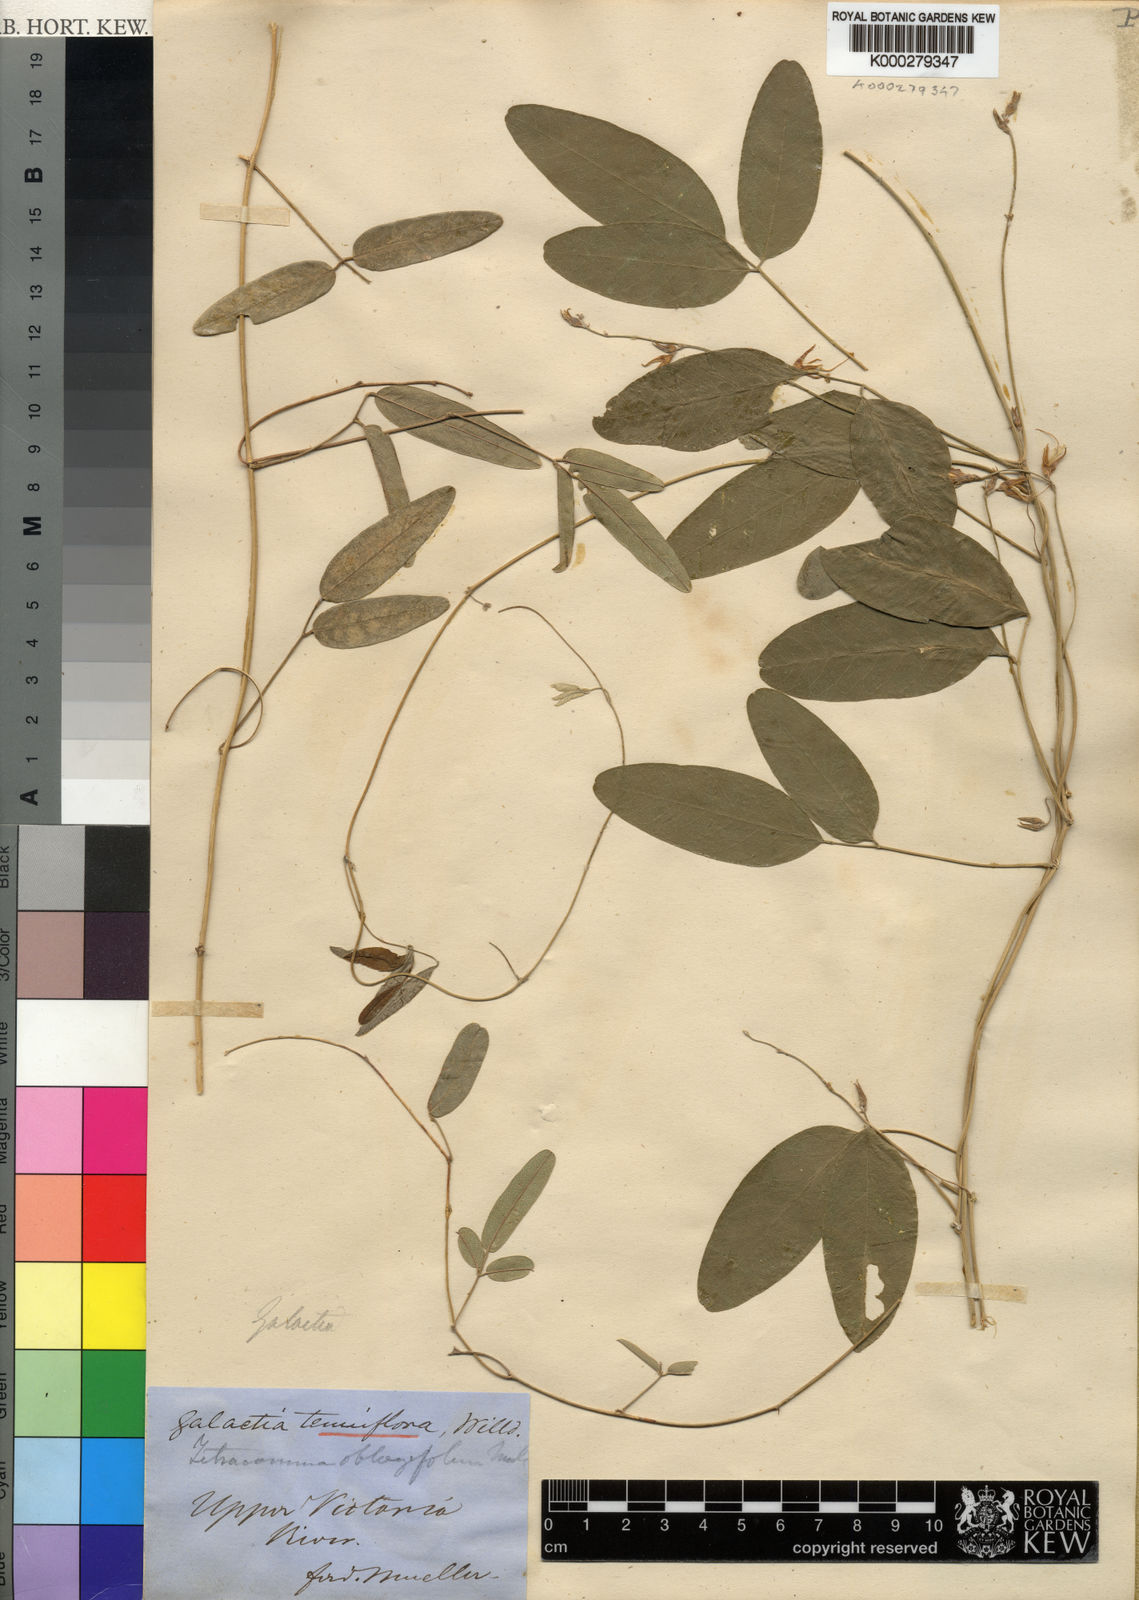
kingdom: Plantae
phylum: Tracheophyta
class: Magnoliopsida
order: Fabales
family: Fabaceae
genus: Galactia
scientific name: Galactia striata
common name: Florida hammock milkpea
